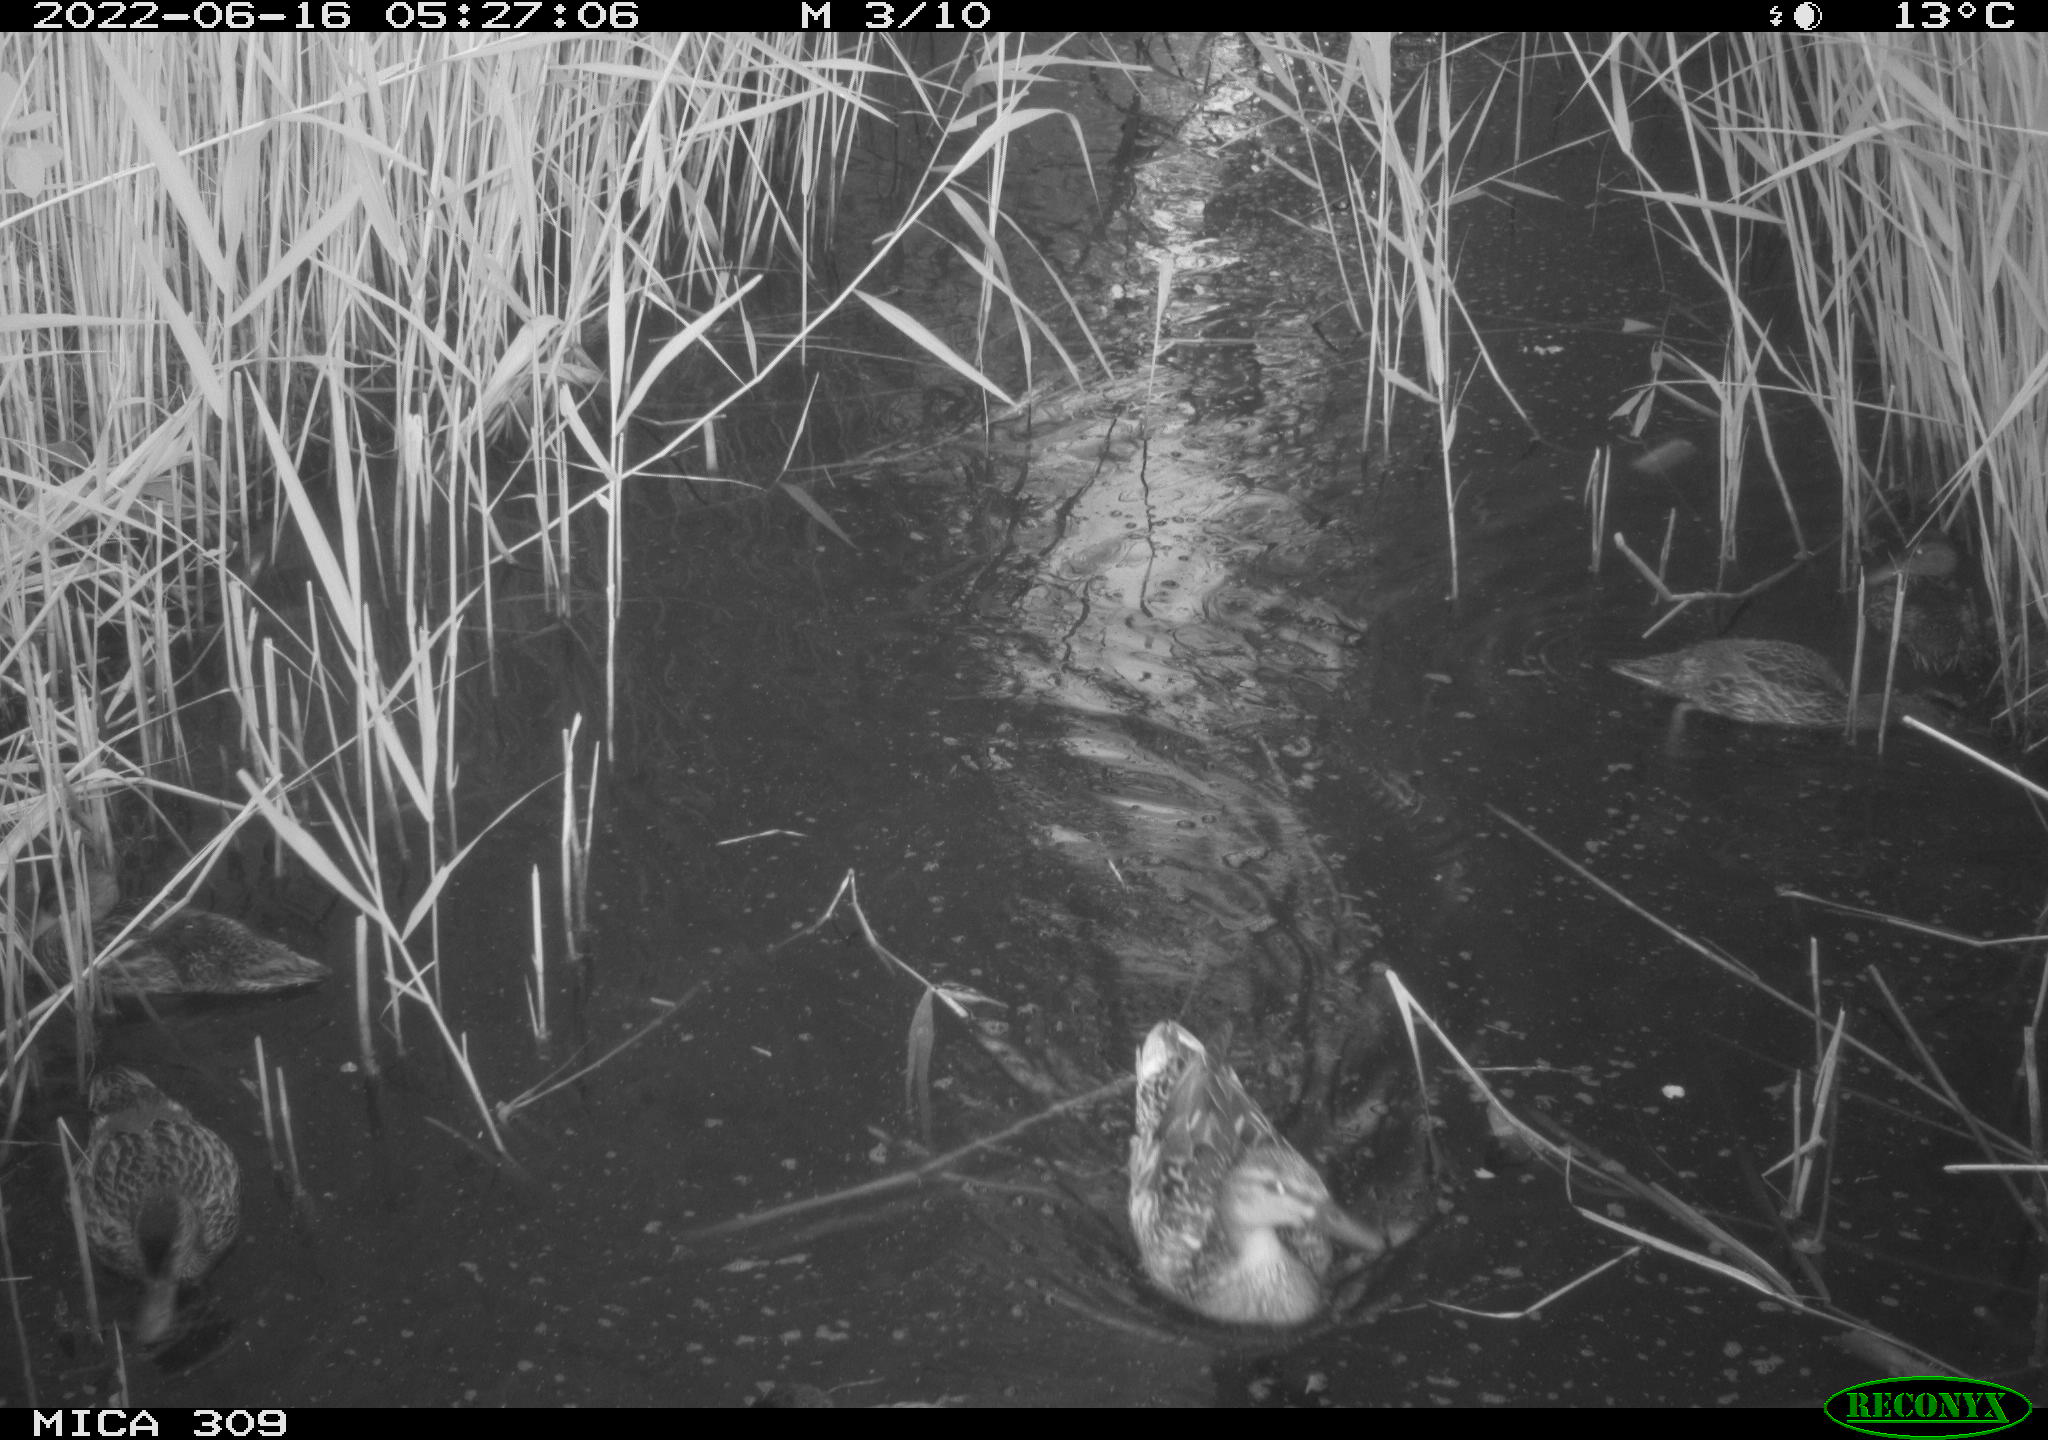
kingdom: Animalia
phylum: Chordata
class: Aves
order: Anseriformes
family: Anatidae
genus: Anas
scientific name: Anas platyrhynchos
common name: Mallard
